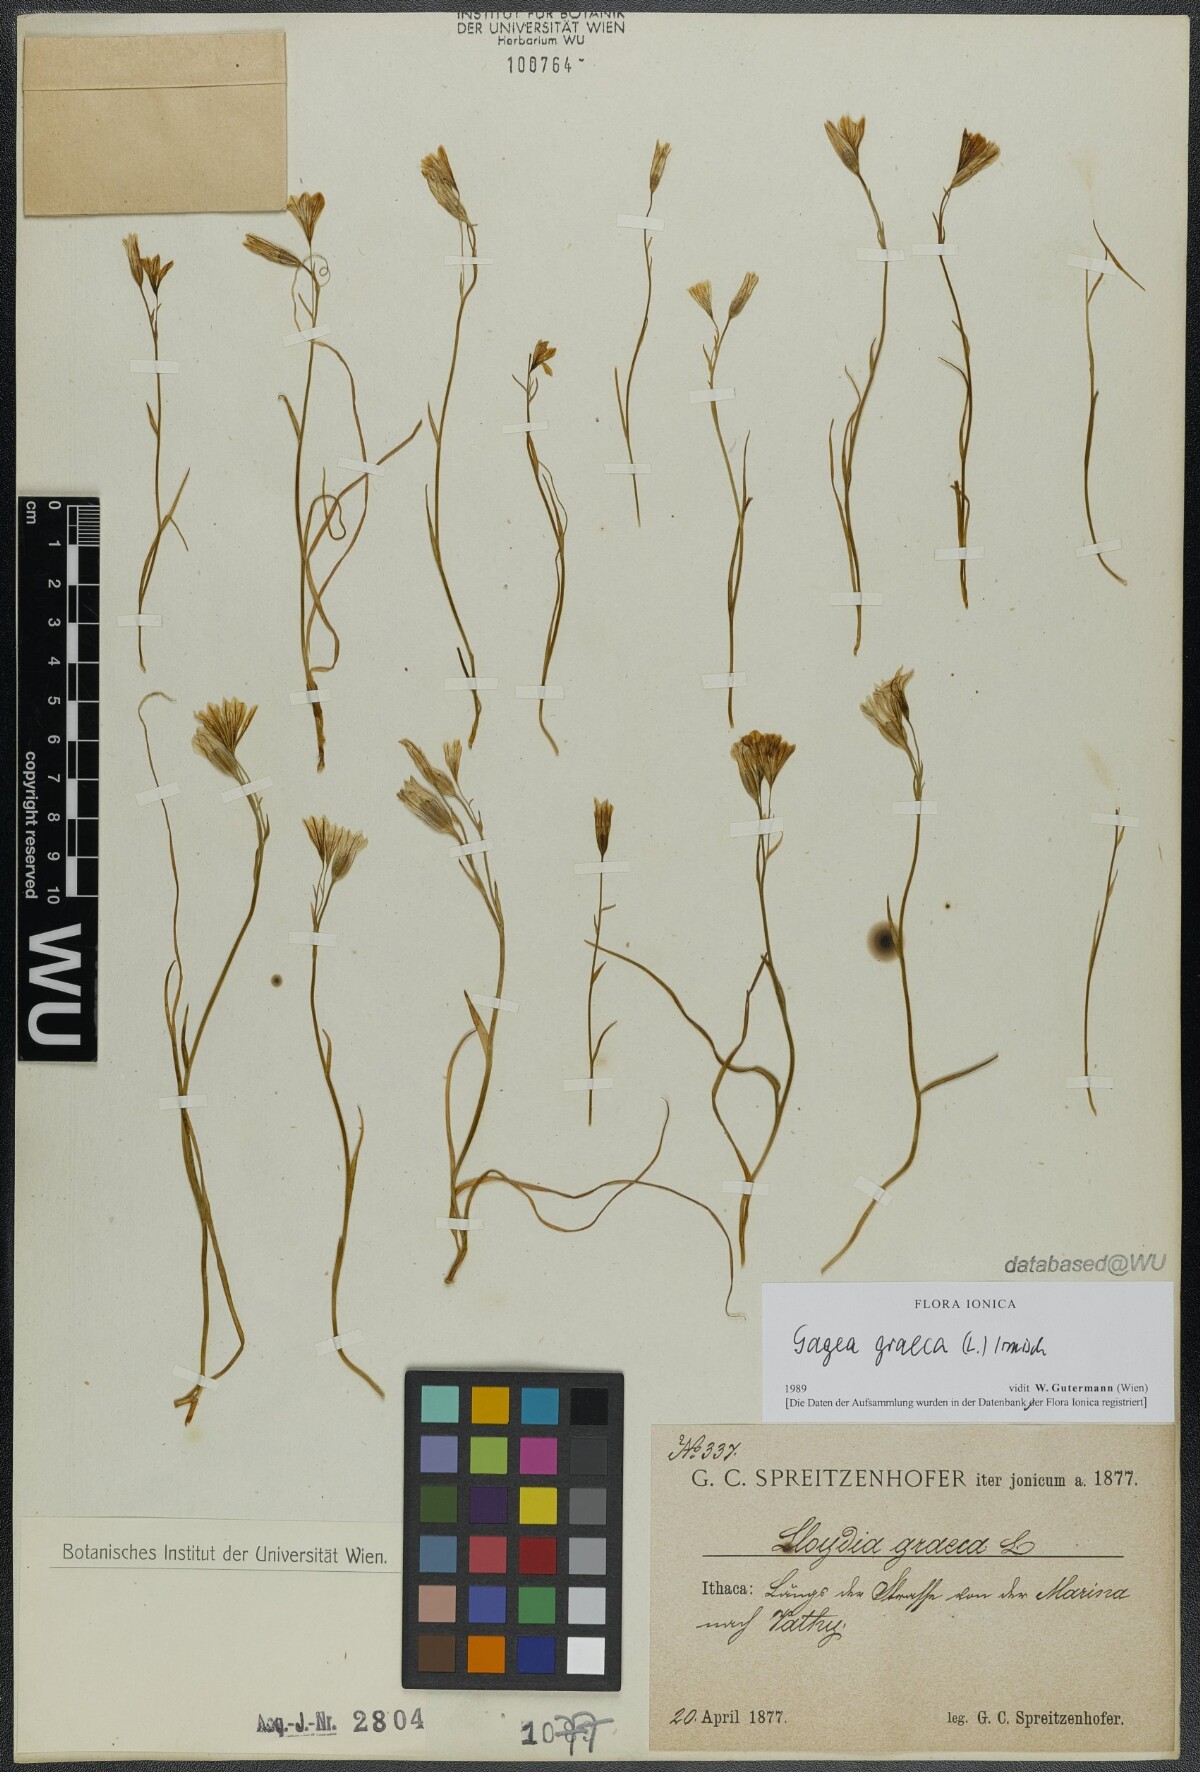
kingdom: Plantae
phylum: Tracheophyta
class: Liliopsida
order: Liliales
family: Liliaceae
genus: Gagea
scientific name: Gagea graeca
